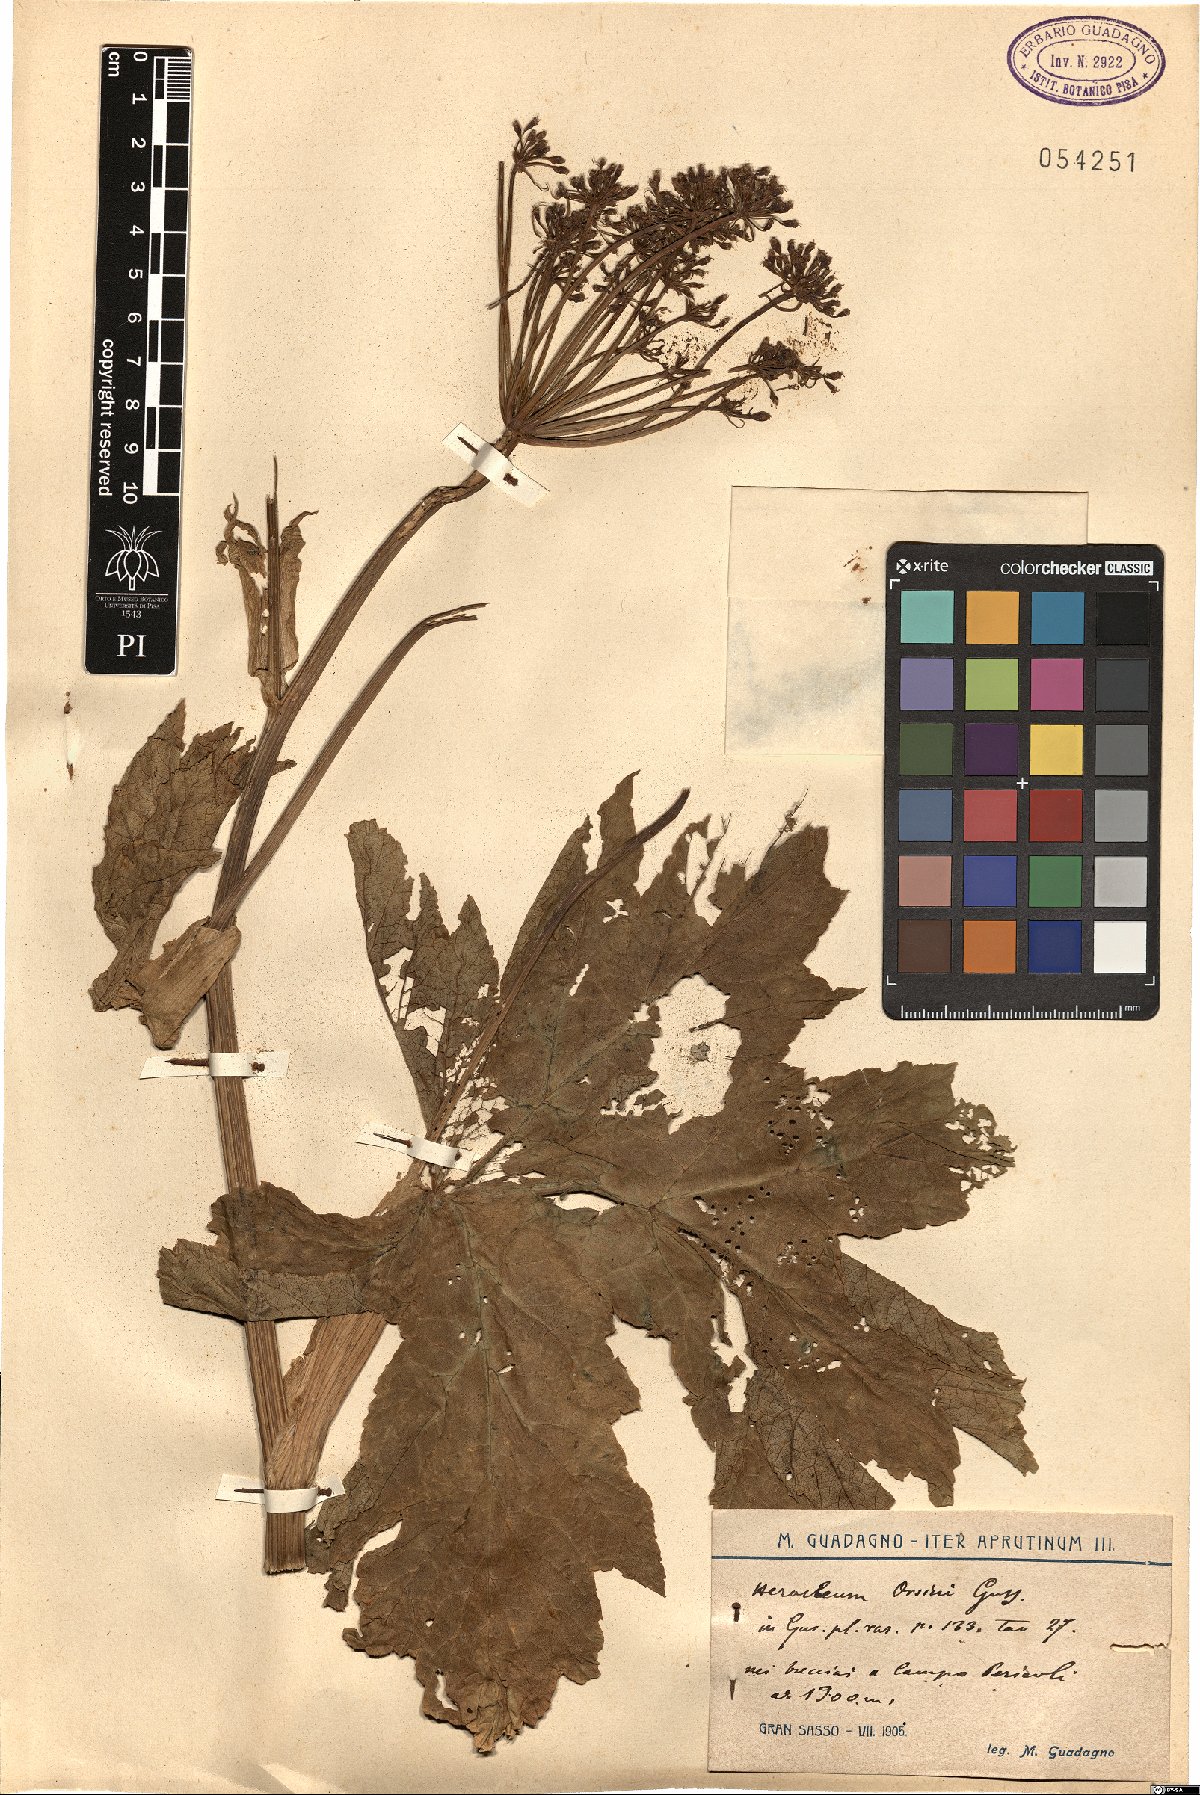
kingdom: Plantae
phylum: Tracheophyta
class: Magnoliopsida
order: Apiales
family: Apiaceae
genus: Heracleum
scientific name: Heracleum sphondylium
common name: Hogweed
